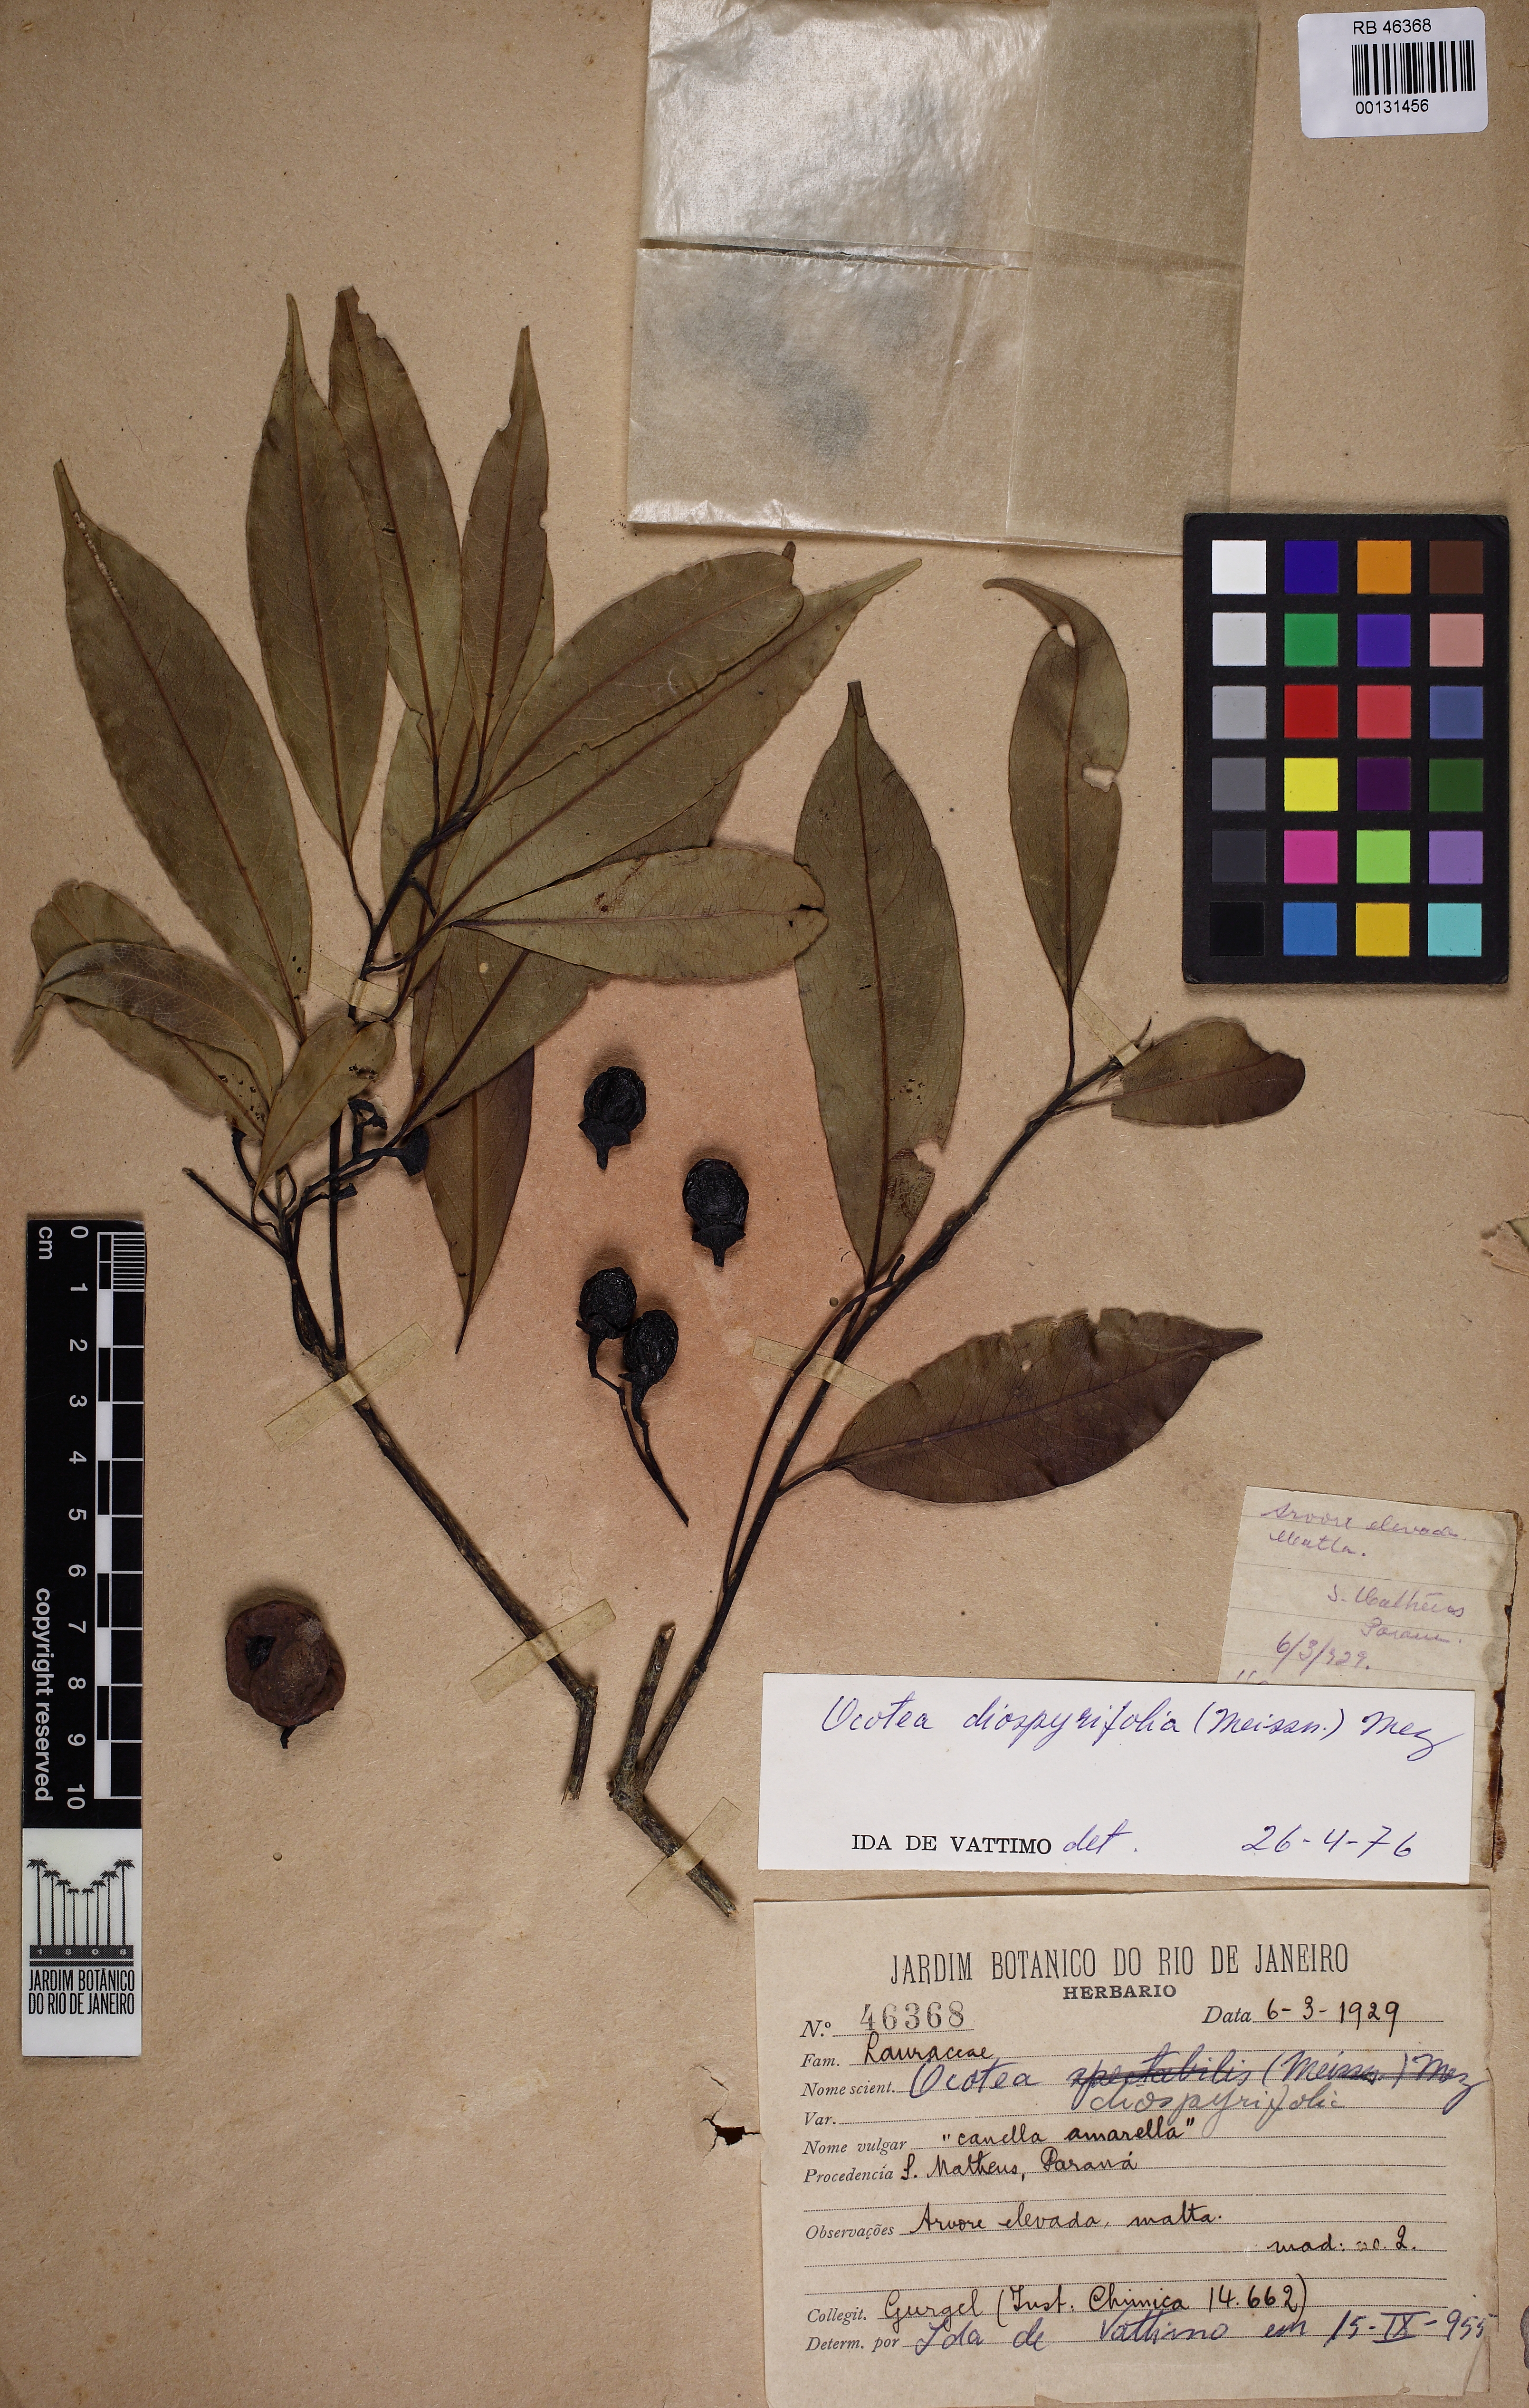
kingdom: Plantae
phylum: Tracheophyta
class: Magnoliopsida
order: Laurales
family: Lauraceae
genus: Ocotea
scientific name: Ocotea diospyrifolia
